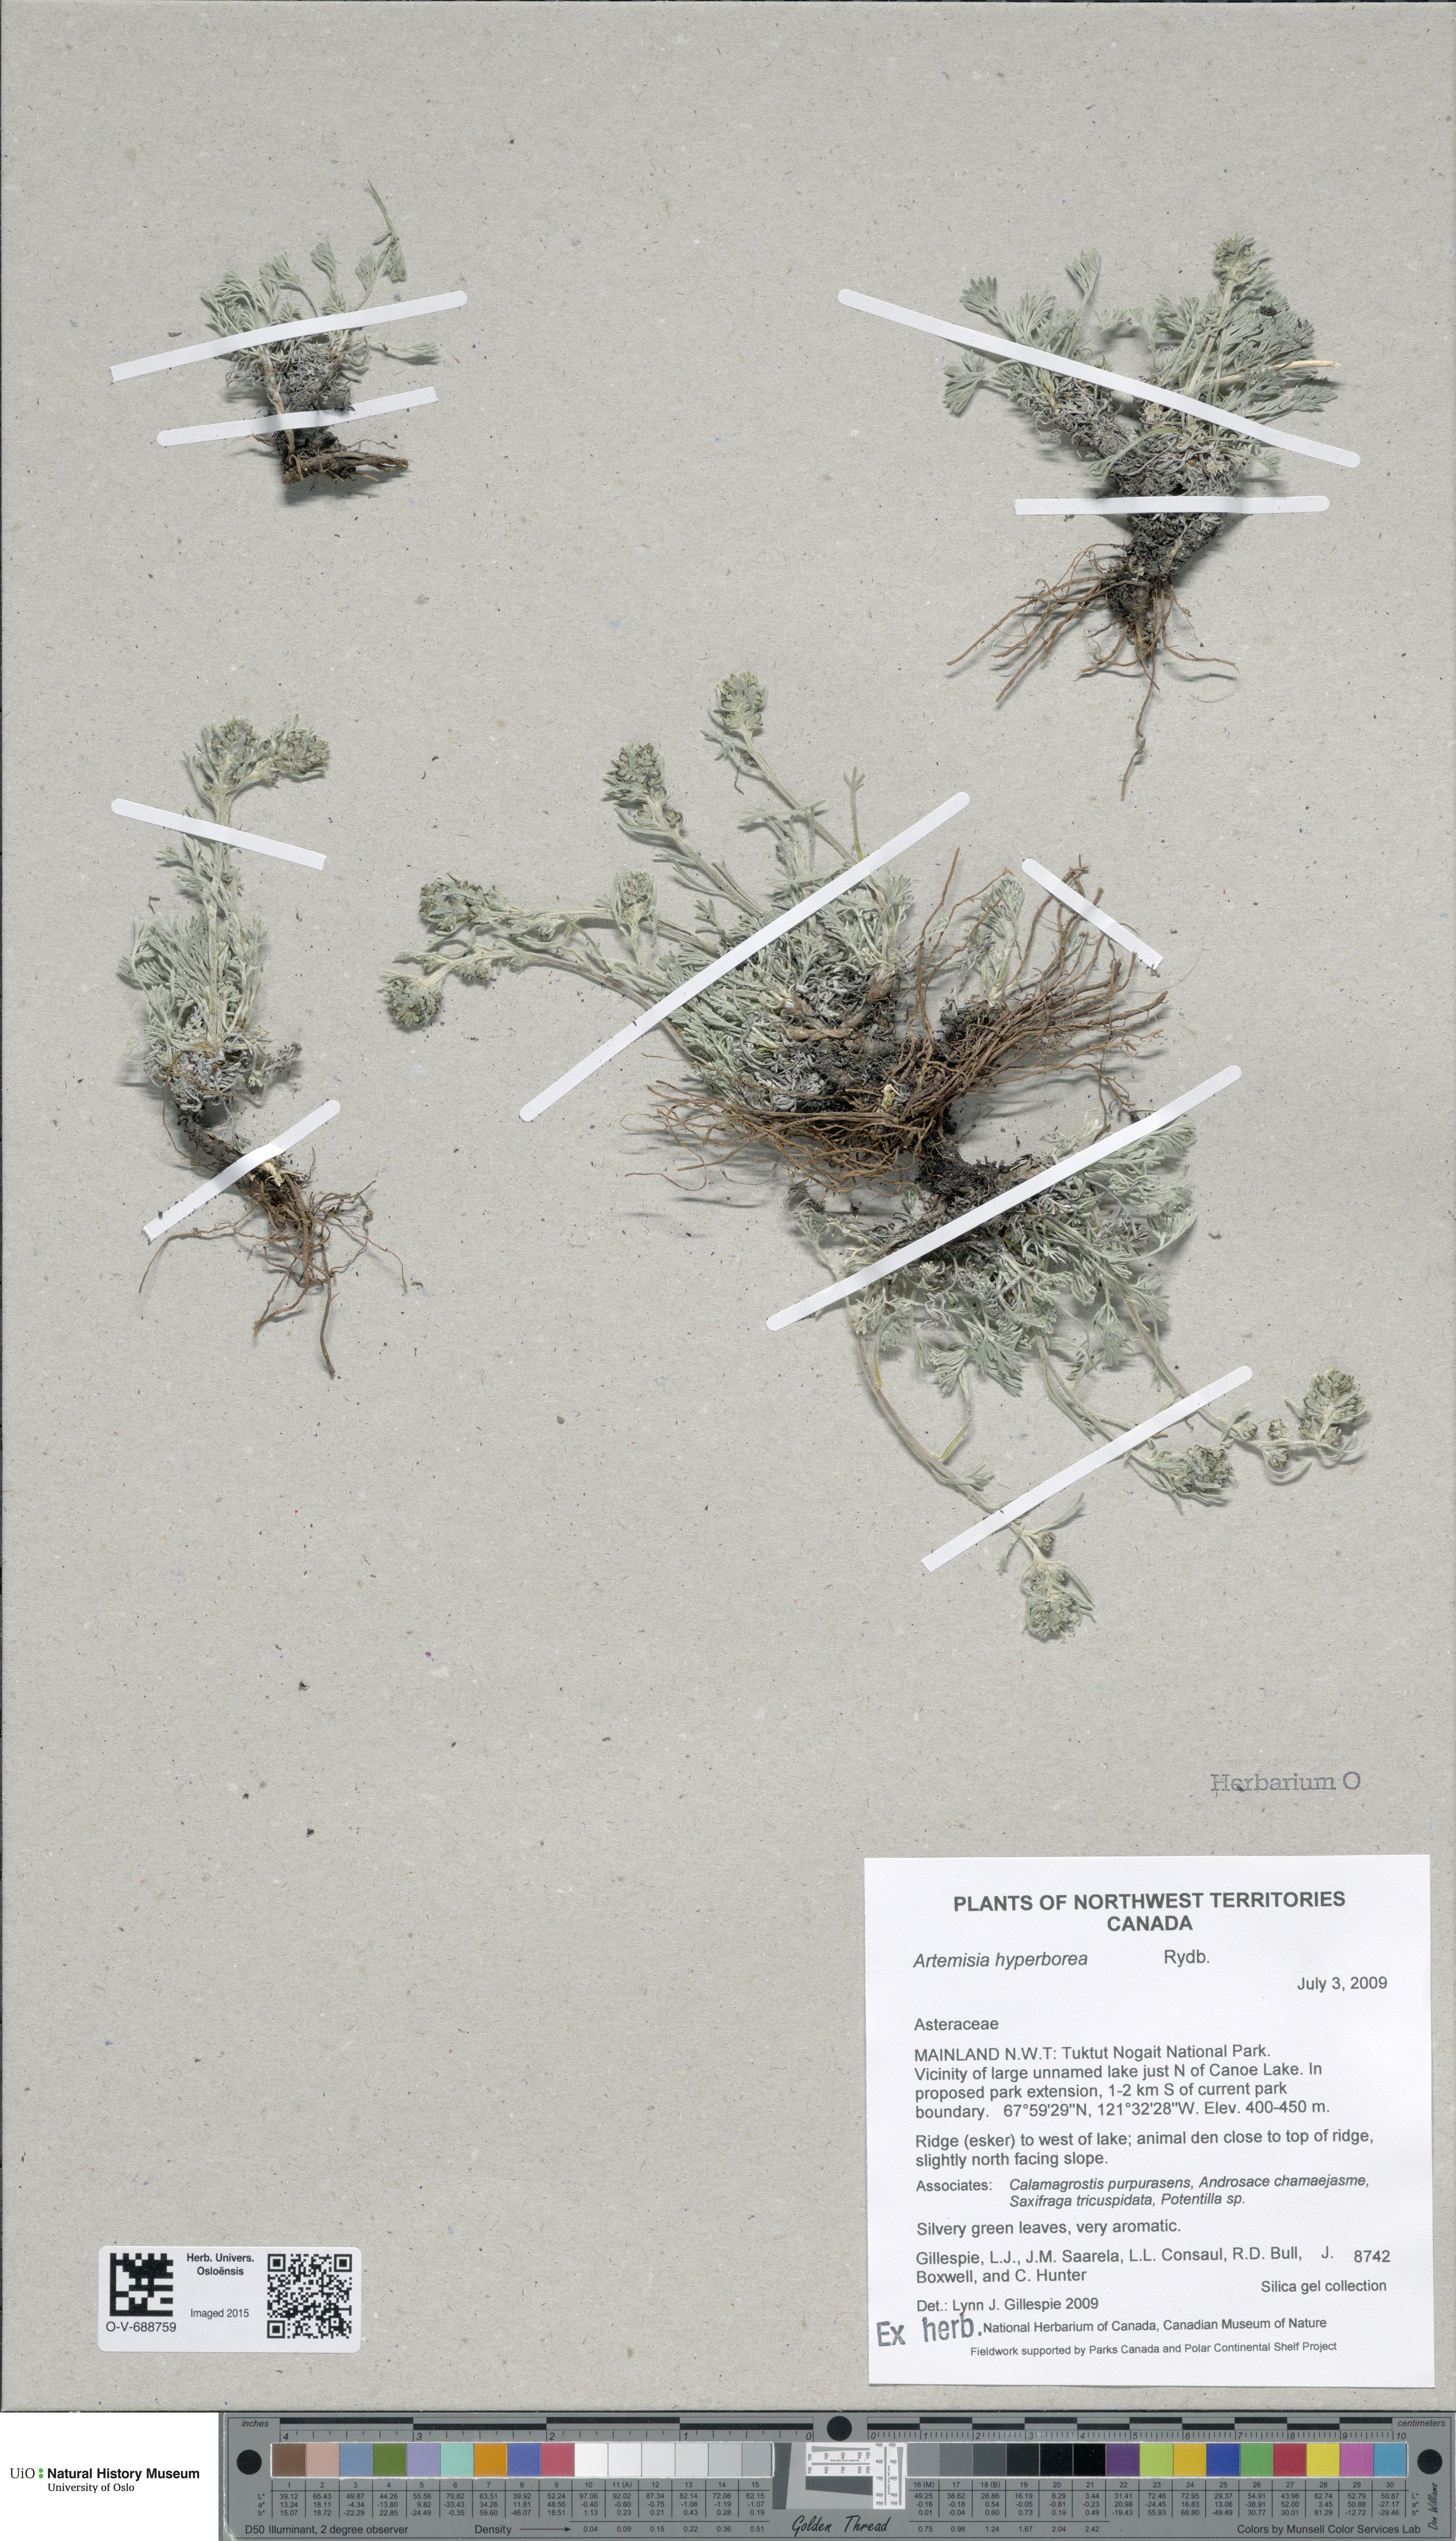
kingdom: Plantae
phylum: Tracheophyta
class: Magnoliopsida
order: Asterales
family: Asteraceae
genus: Artemisia
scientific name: Artemisia furcata
